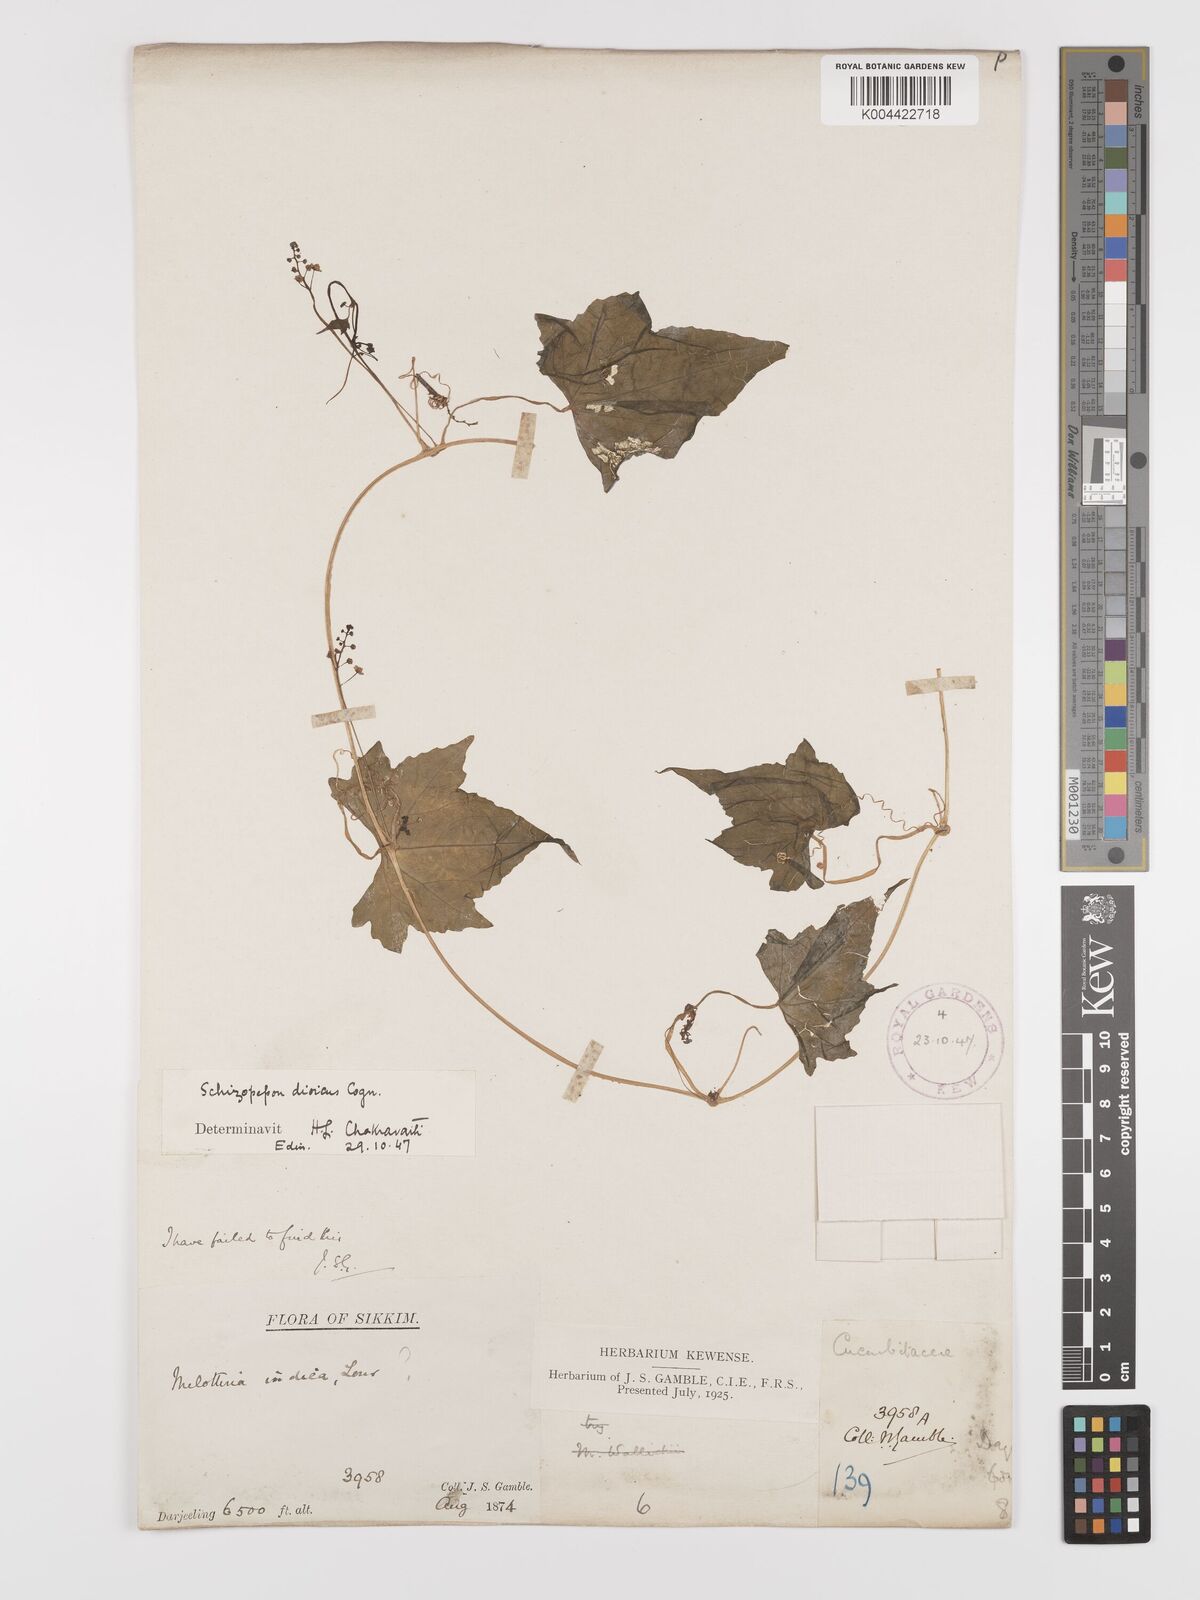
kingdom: Plantae
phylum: Tracheophyta
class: Magnoliopsida
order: Cucurbitales
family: Cucurbitaceae
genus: Schizopepon
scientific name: Schizopepon longipes
